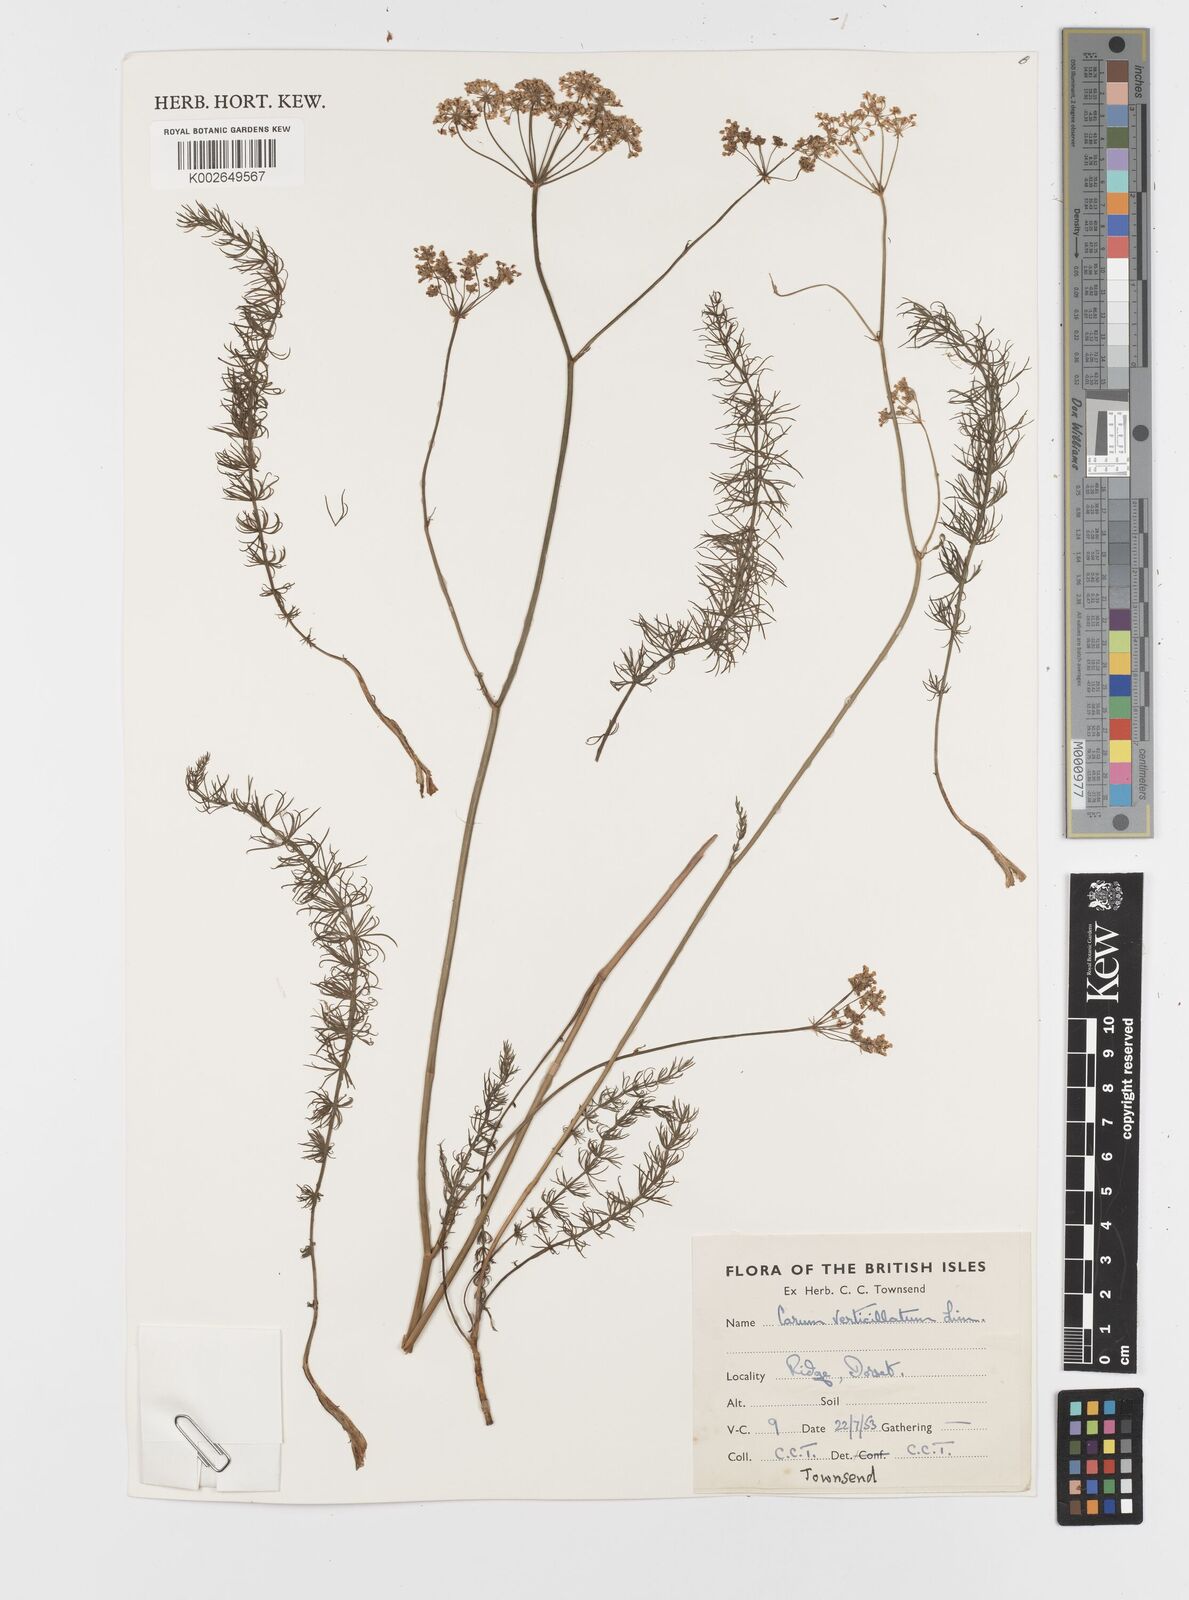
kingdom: Plantae
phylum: Tracheophyta
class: Magnoliopsida
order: Apiales
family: Apiaceae
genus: Trocdaris
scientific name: Trocdaris verticillatum
